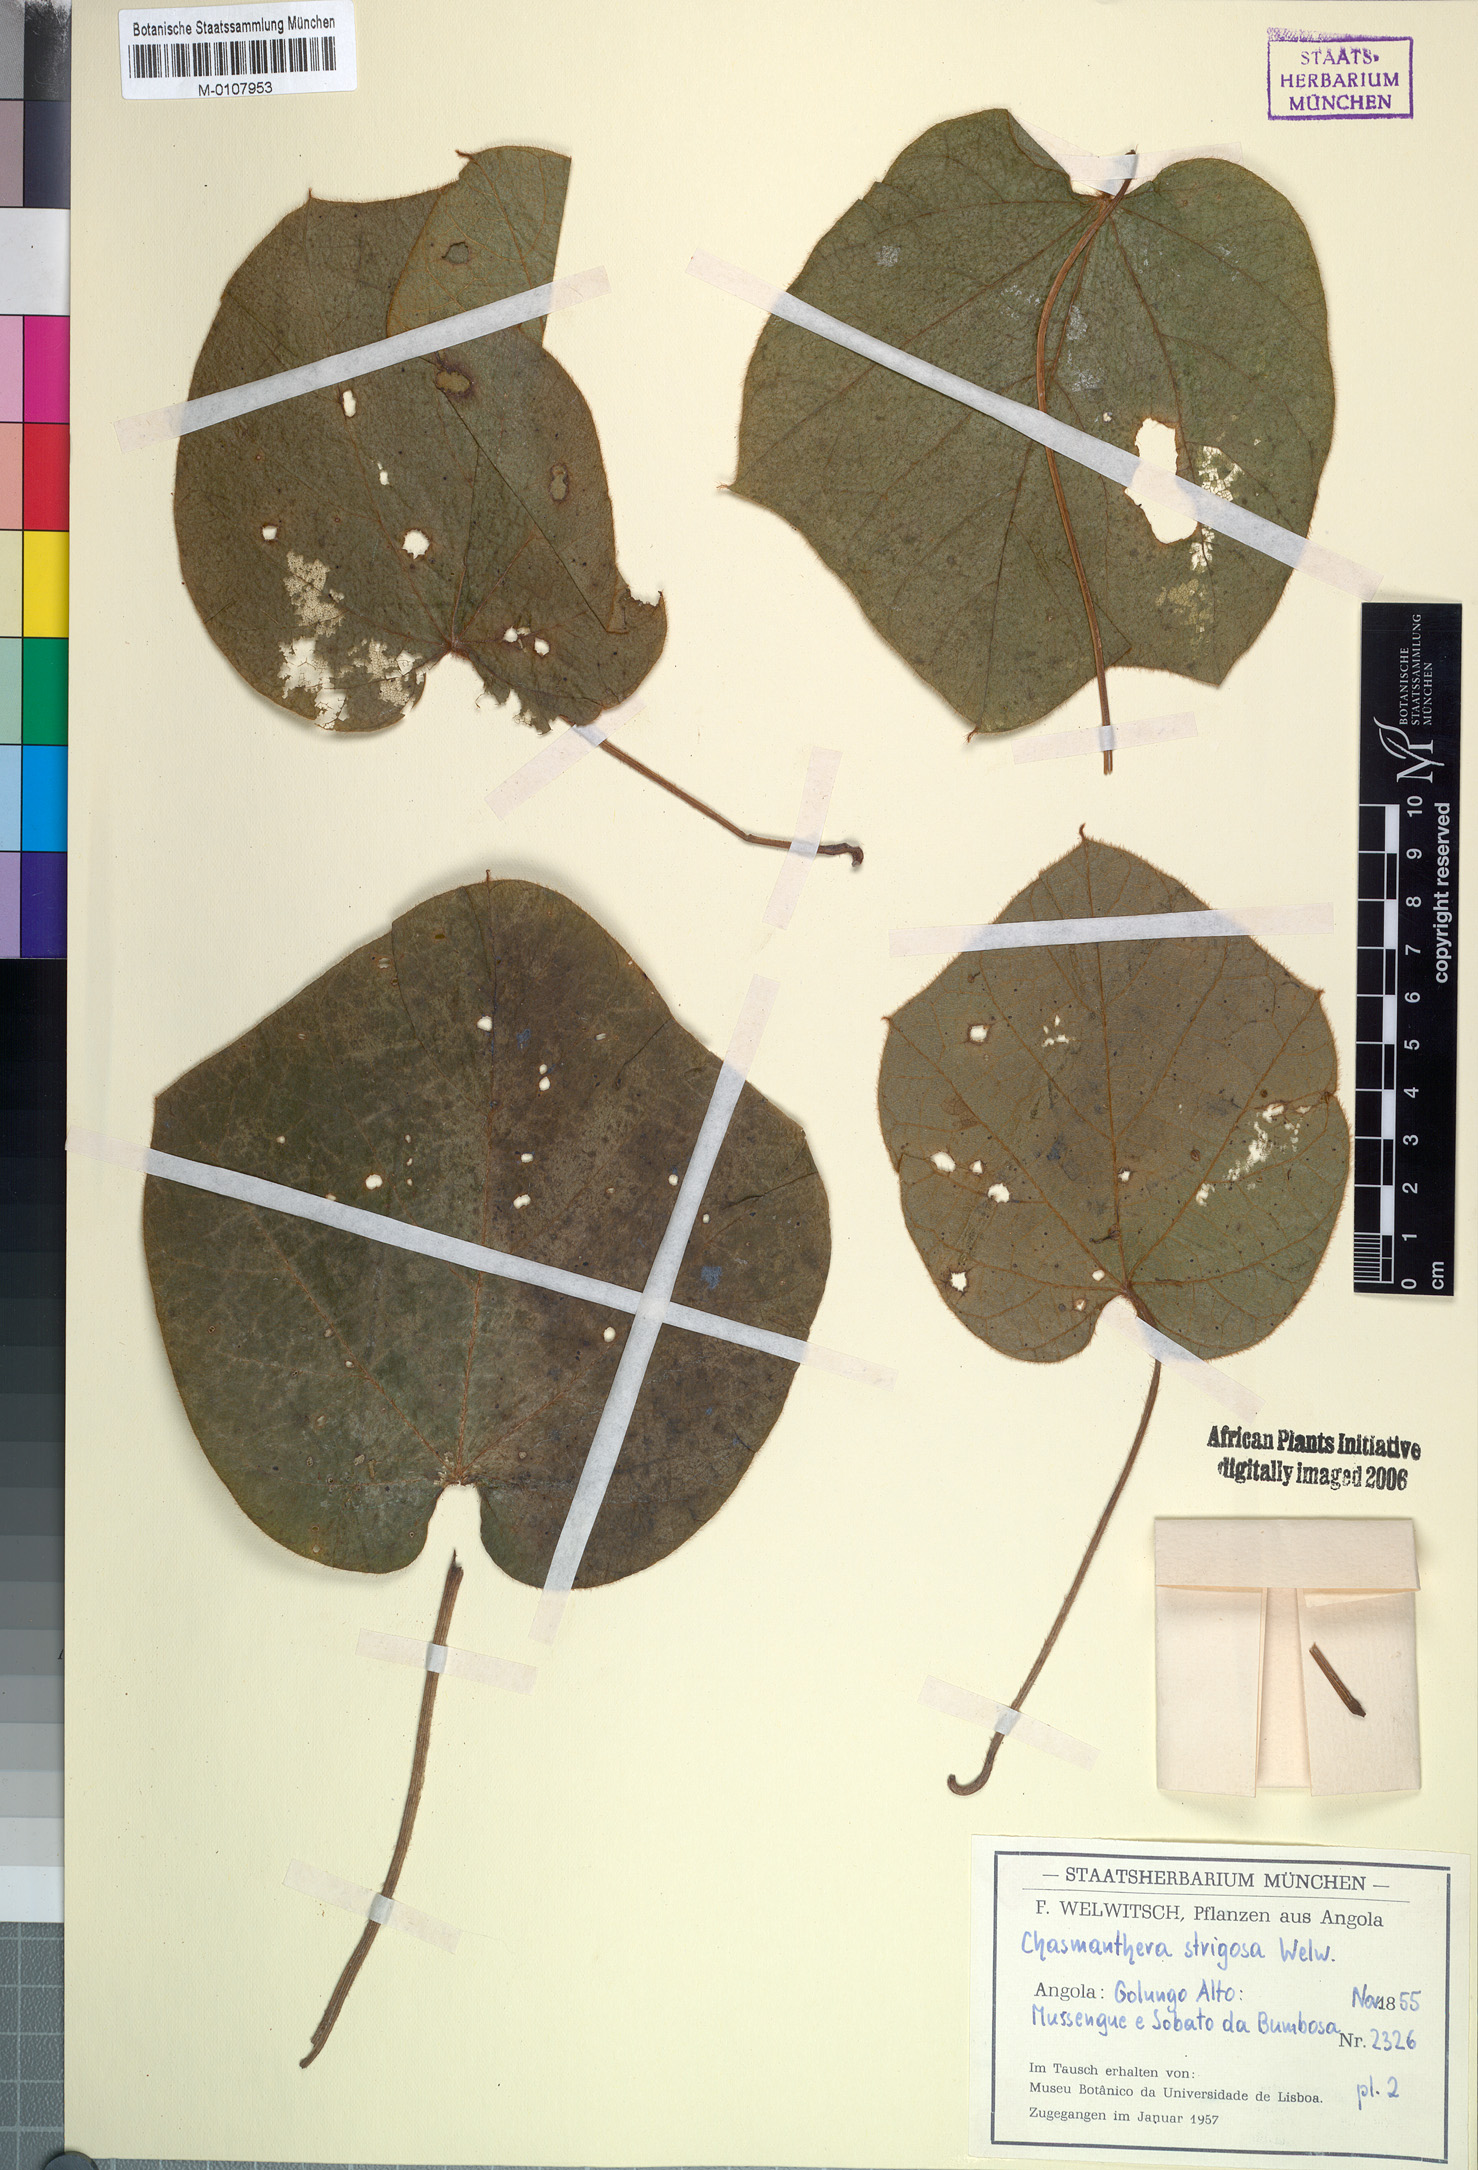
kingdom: Plantae
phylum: Tracheophyta
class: Magnoliopsida
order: Ranunculales
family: Menispermaceae
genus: Chasmanthera
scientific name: Chasmanthera welwitschii
